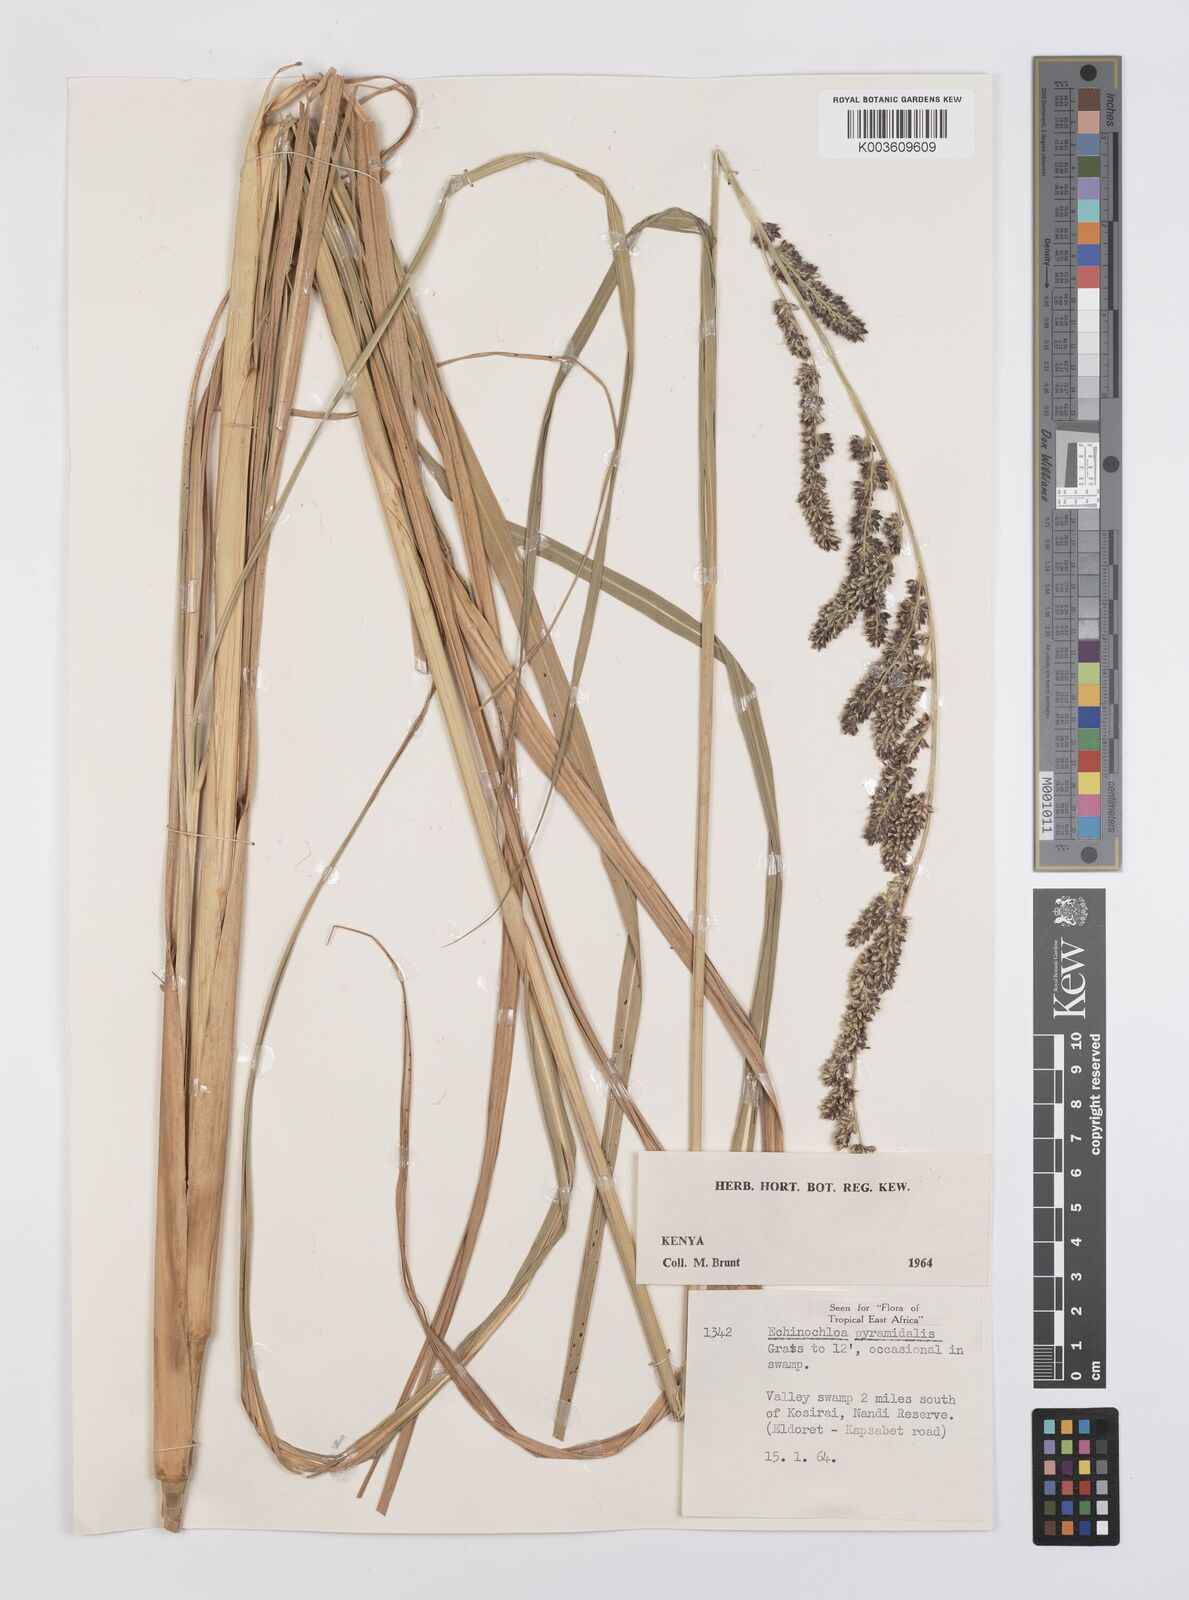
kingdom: Plantae
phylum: Tracheophyta
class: Liliopsida
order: Poales
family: Poaceae
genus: Echinochloa
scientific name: Echinochloa
